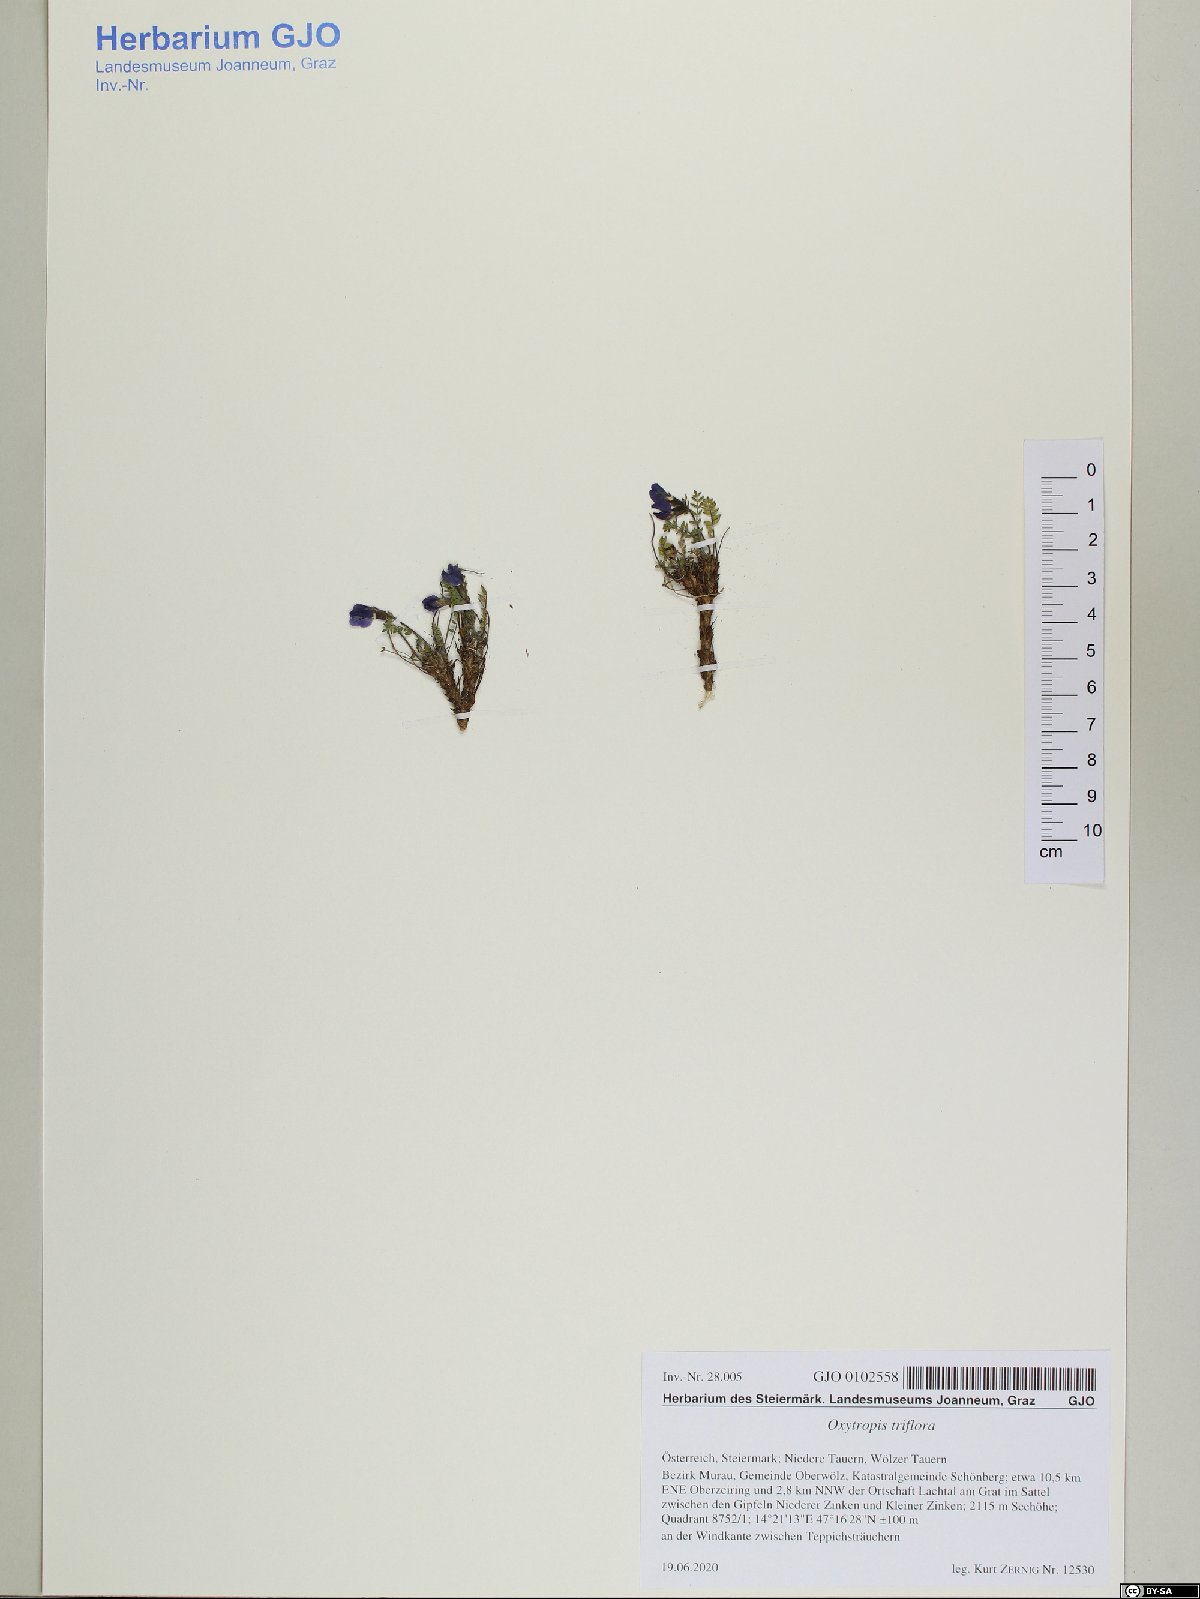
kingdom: Plantae
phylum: Tracheophyta
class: Magnoliopsida
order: Fabales
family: Fabaceae
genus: Oxytropis
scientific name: Oxytropis triflora
